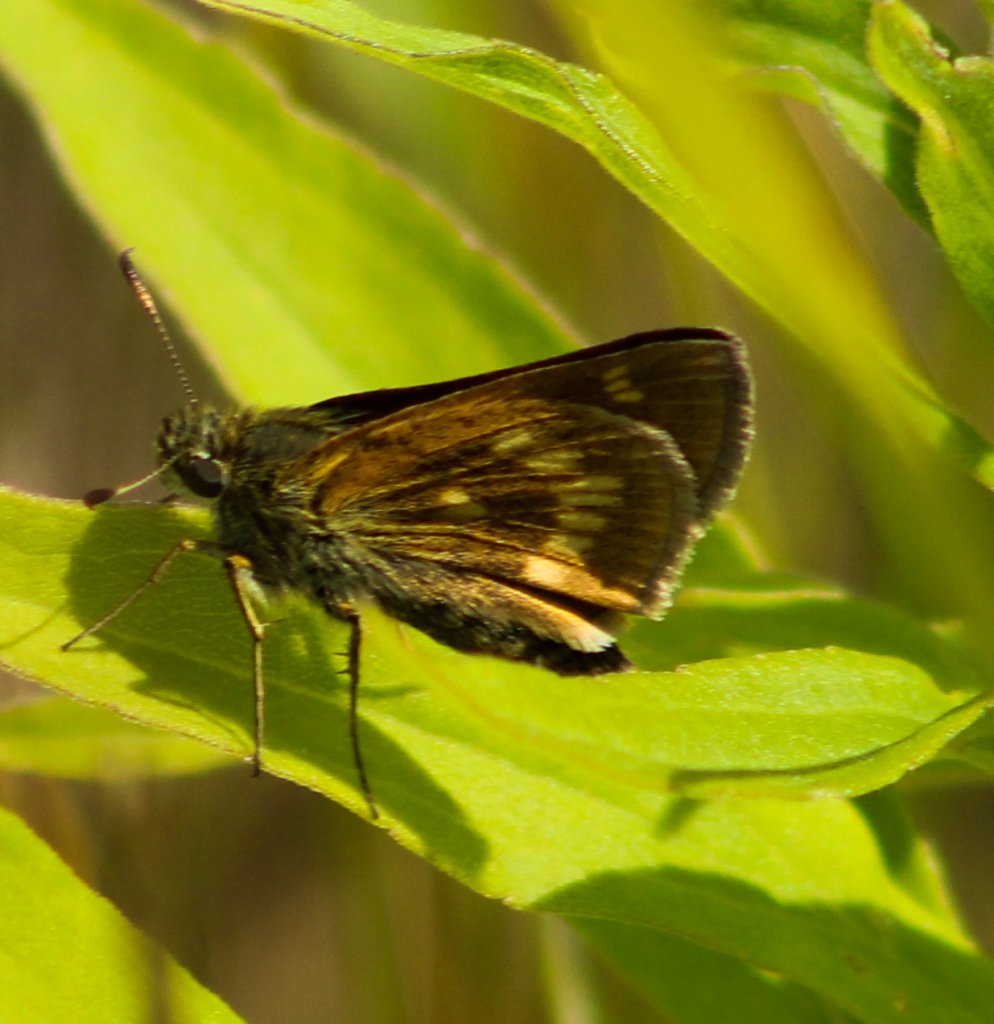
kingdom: Animalia
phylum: Arthropoda
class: Insecta
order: Lepidoptera
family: Hesperiidae
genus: Polites
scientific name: Polites
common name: Long Dash Skipper
